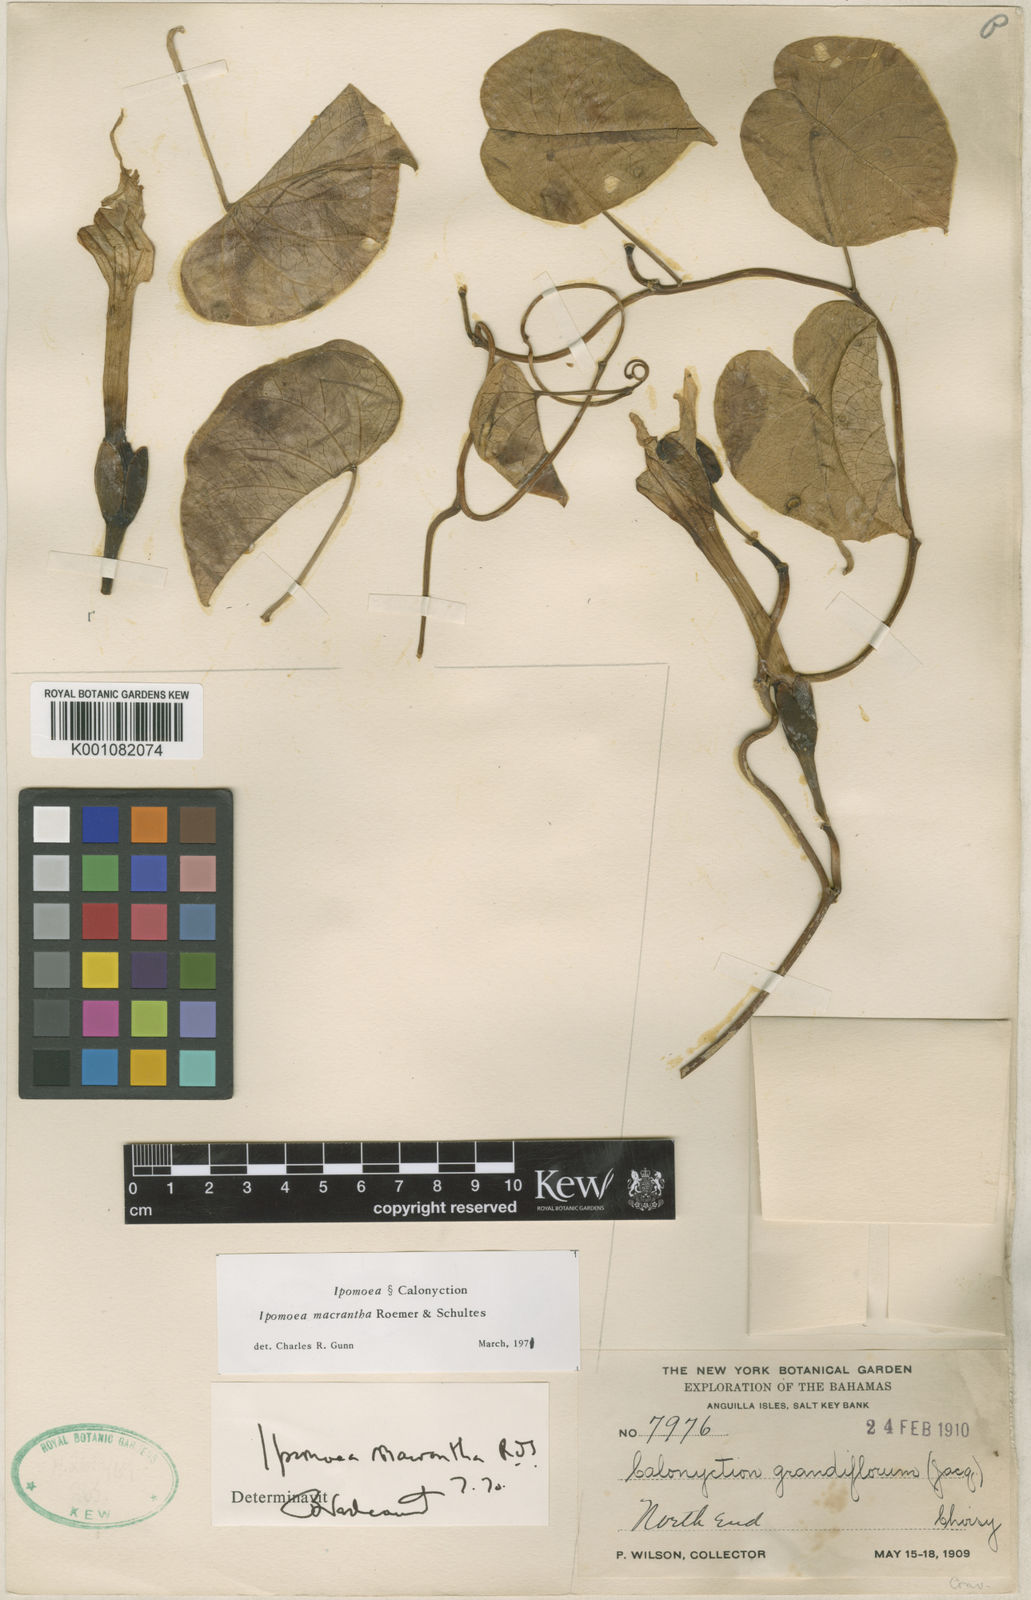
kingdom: Plantae
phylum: Tracheophyta
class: Magnoliopsida
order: Solanales
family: Convolvulaceae
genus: Ipomoea
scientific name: Ipomoea violacea
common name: Beach moonflower
